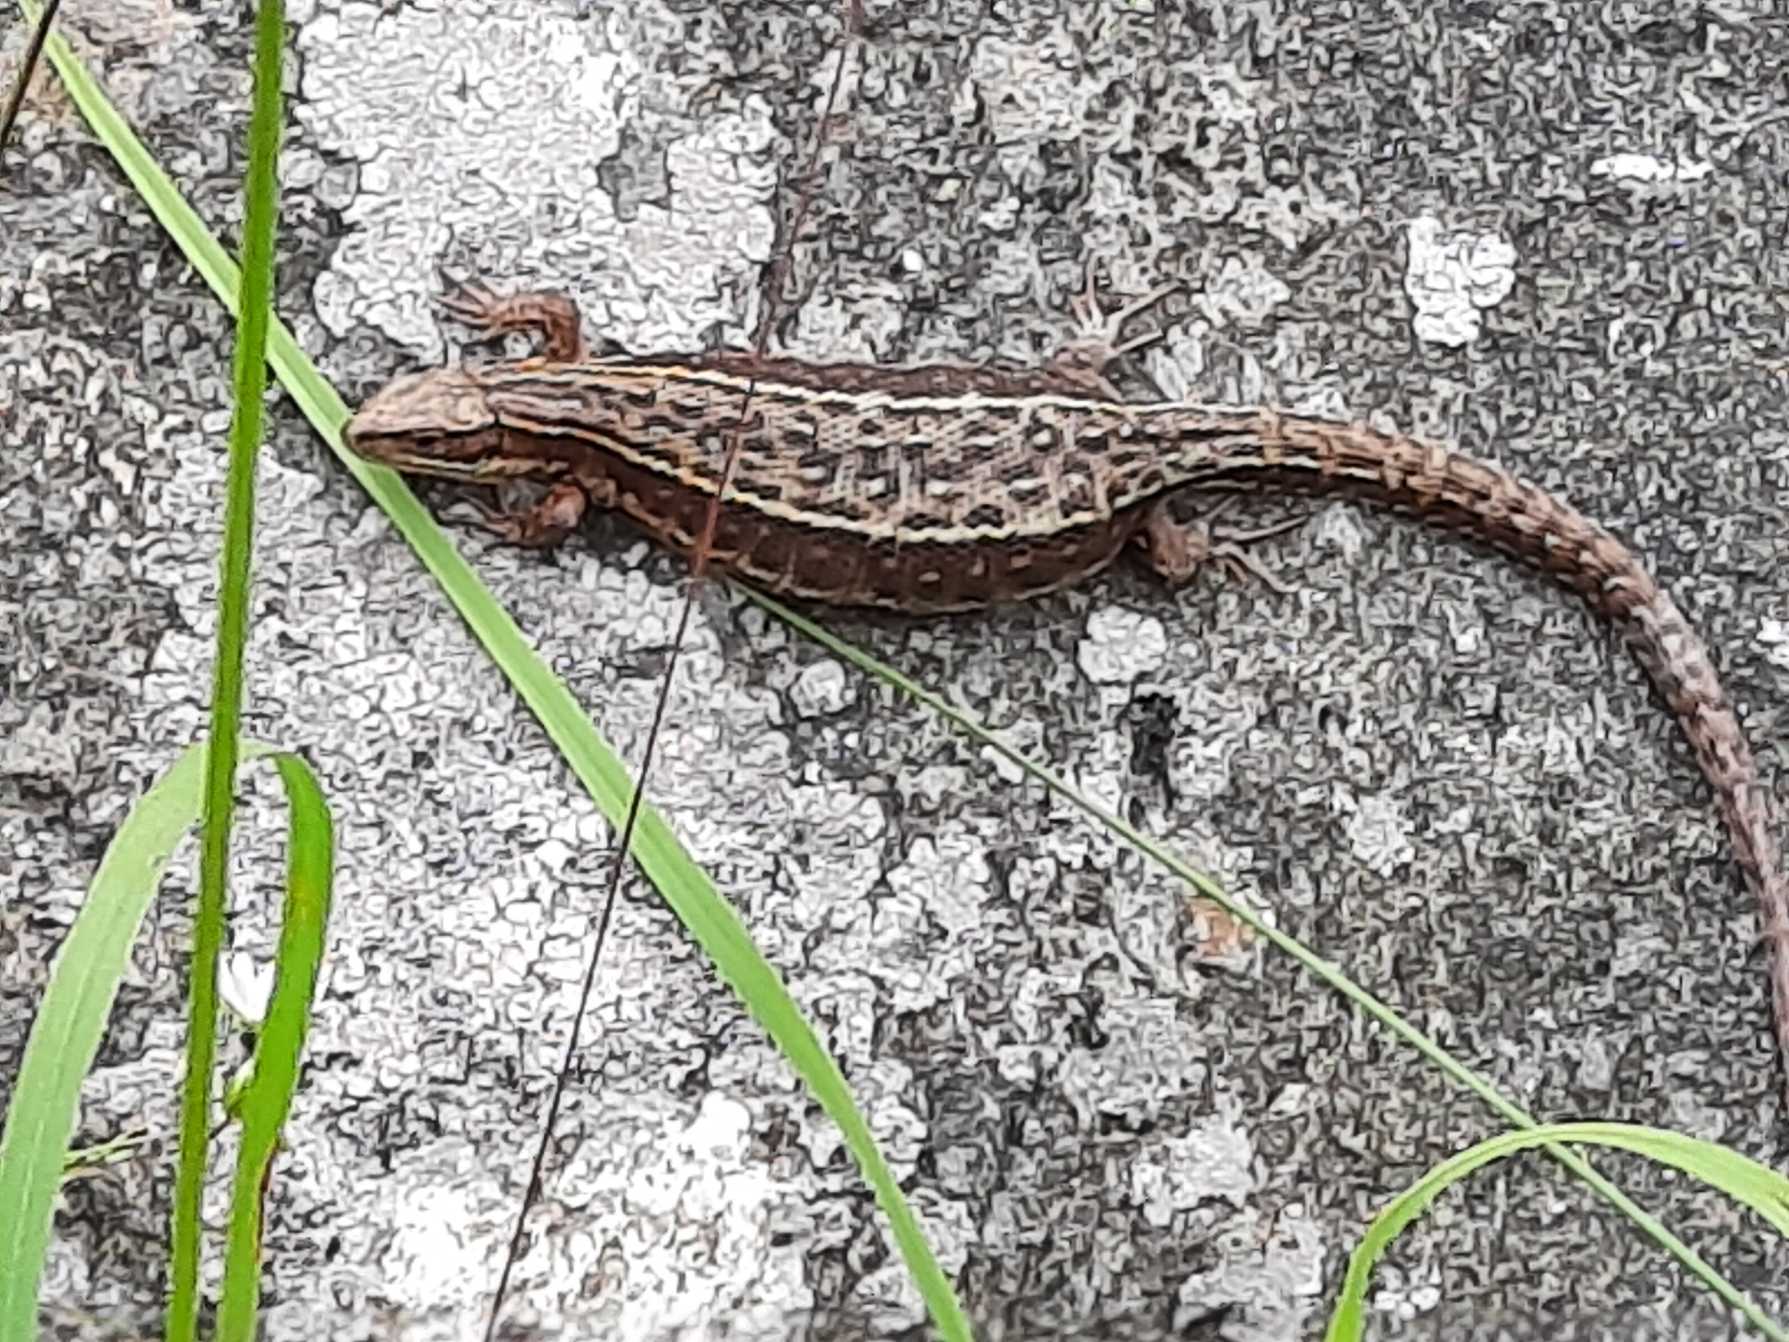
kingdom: Animalia
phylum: Chordata
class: Squamata
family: Lacertidae
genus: Zootoca
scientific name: Zootoca vivipara
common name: Skovfirben
